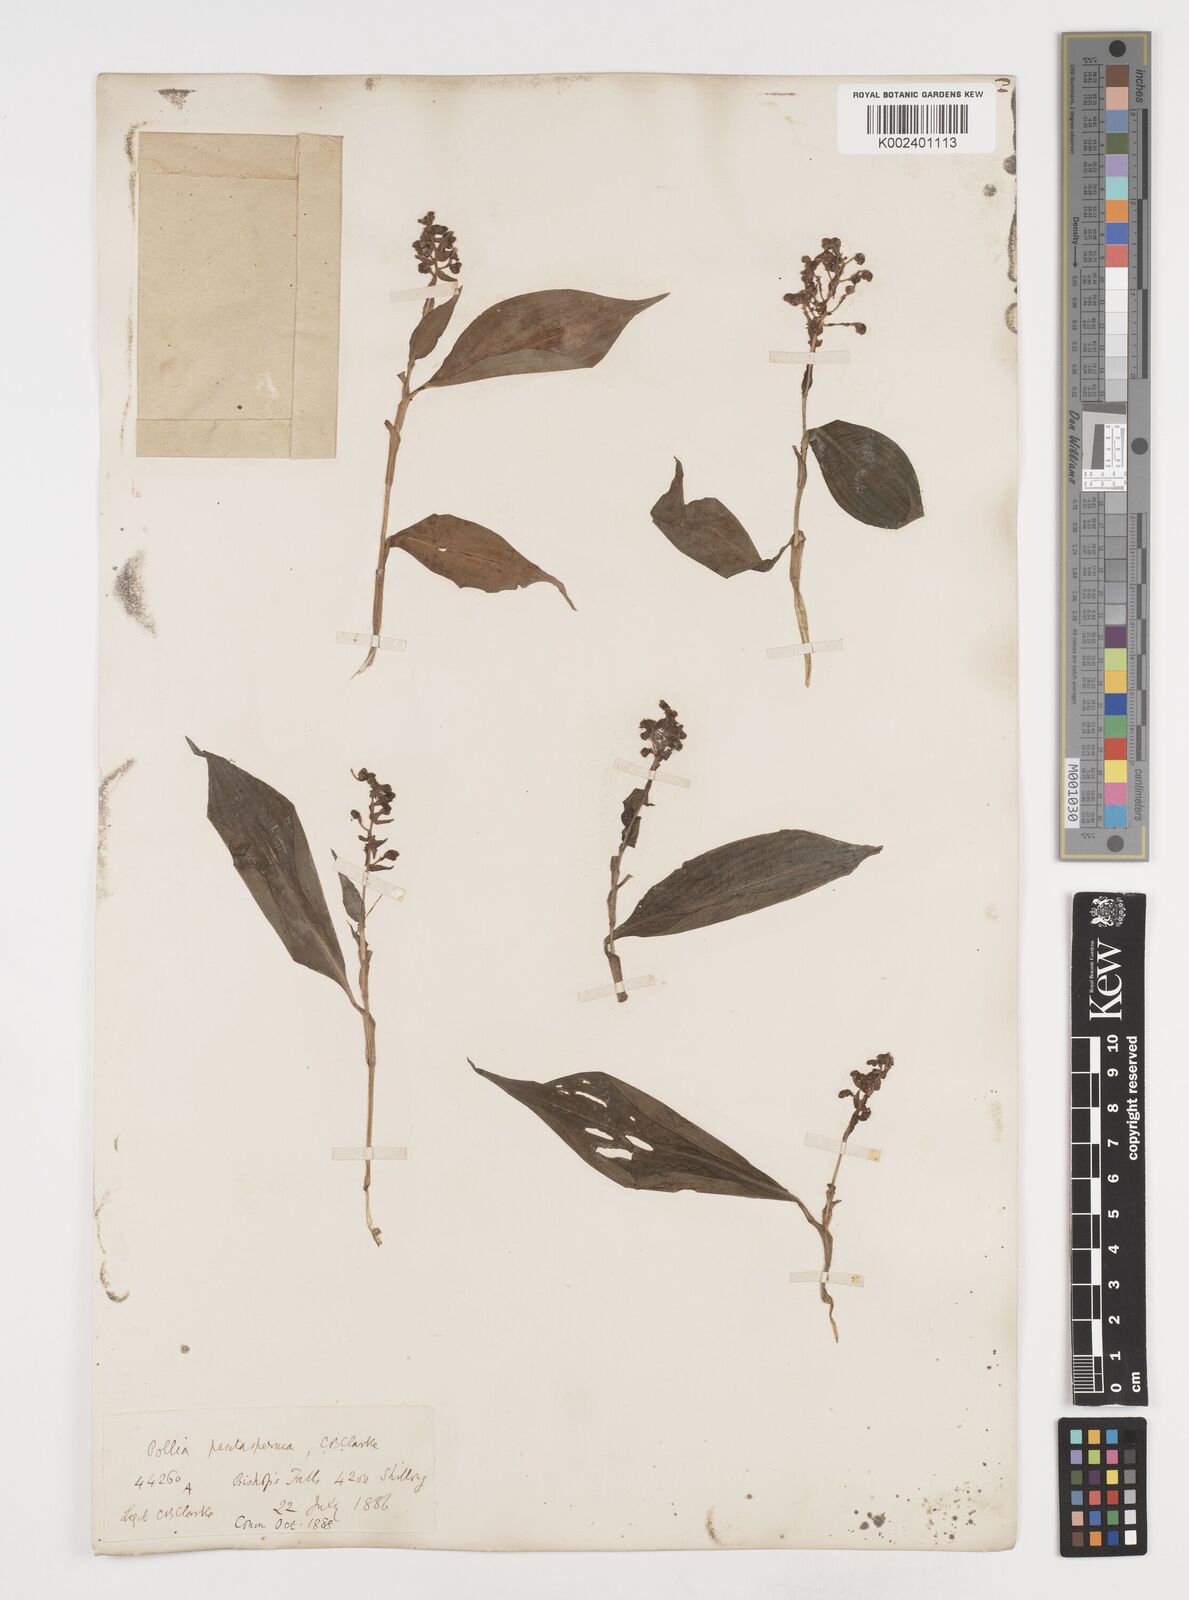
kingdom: Plantae
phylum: Tracheophyta
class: Liliopsida
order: Commelinales
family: Commelinaceae
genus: Pollia
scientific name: Pollia pentasperma
